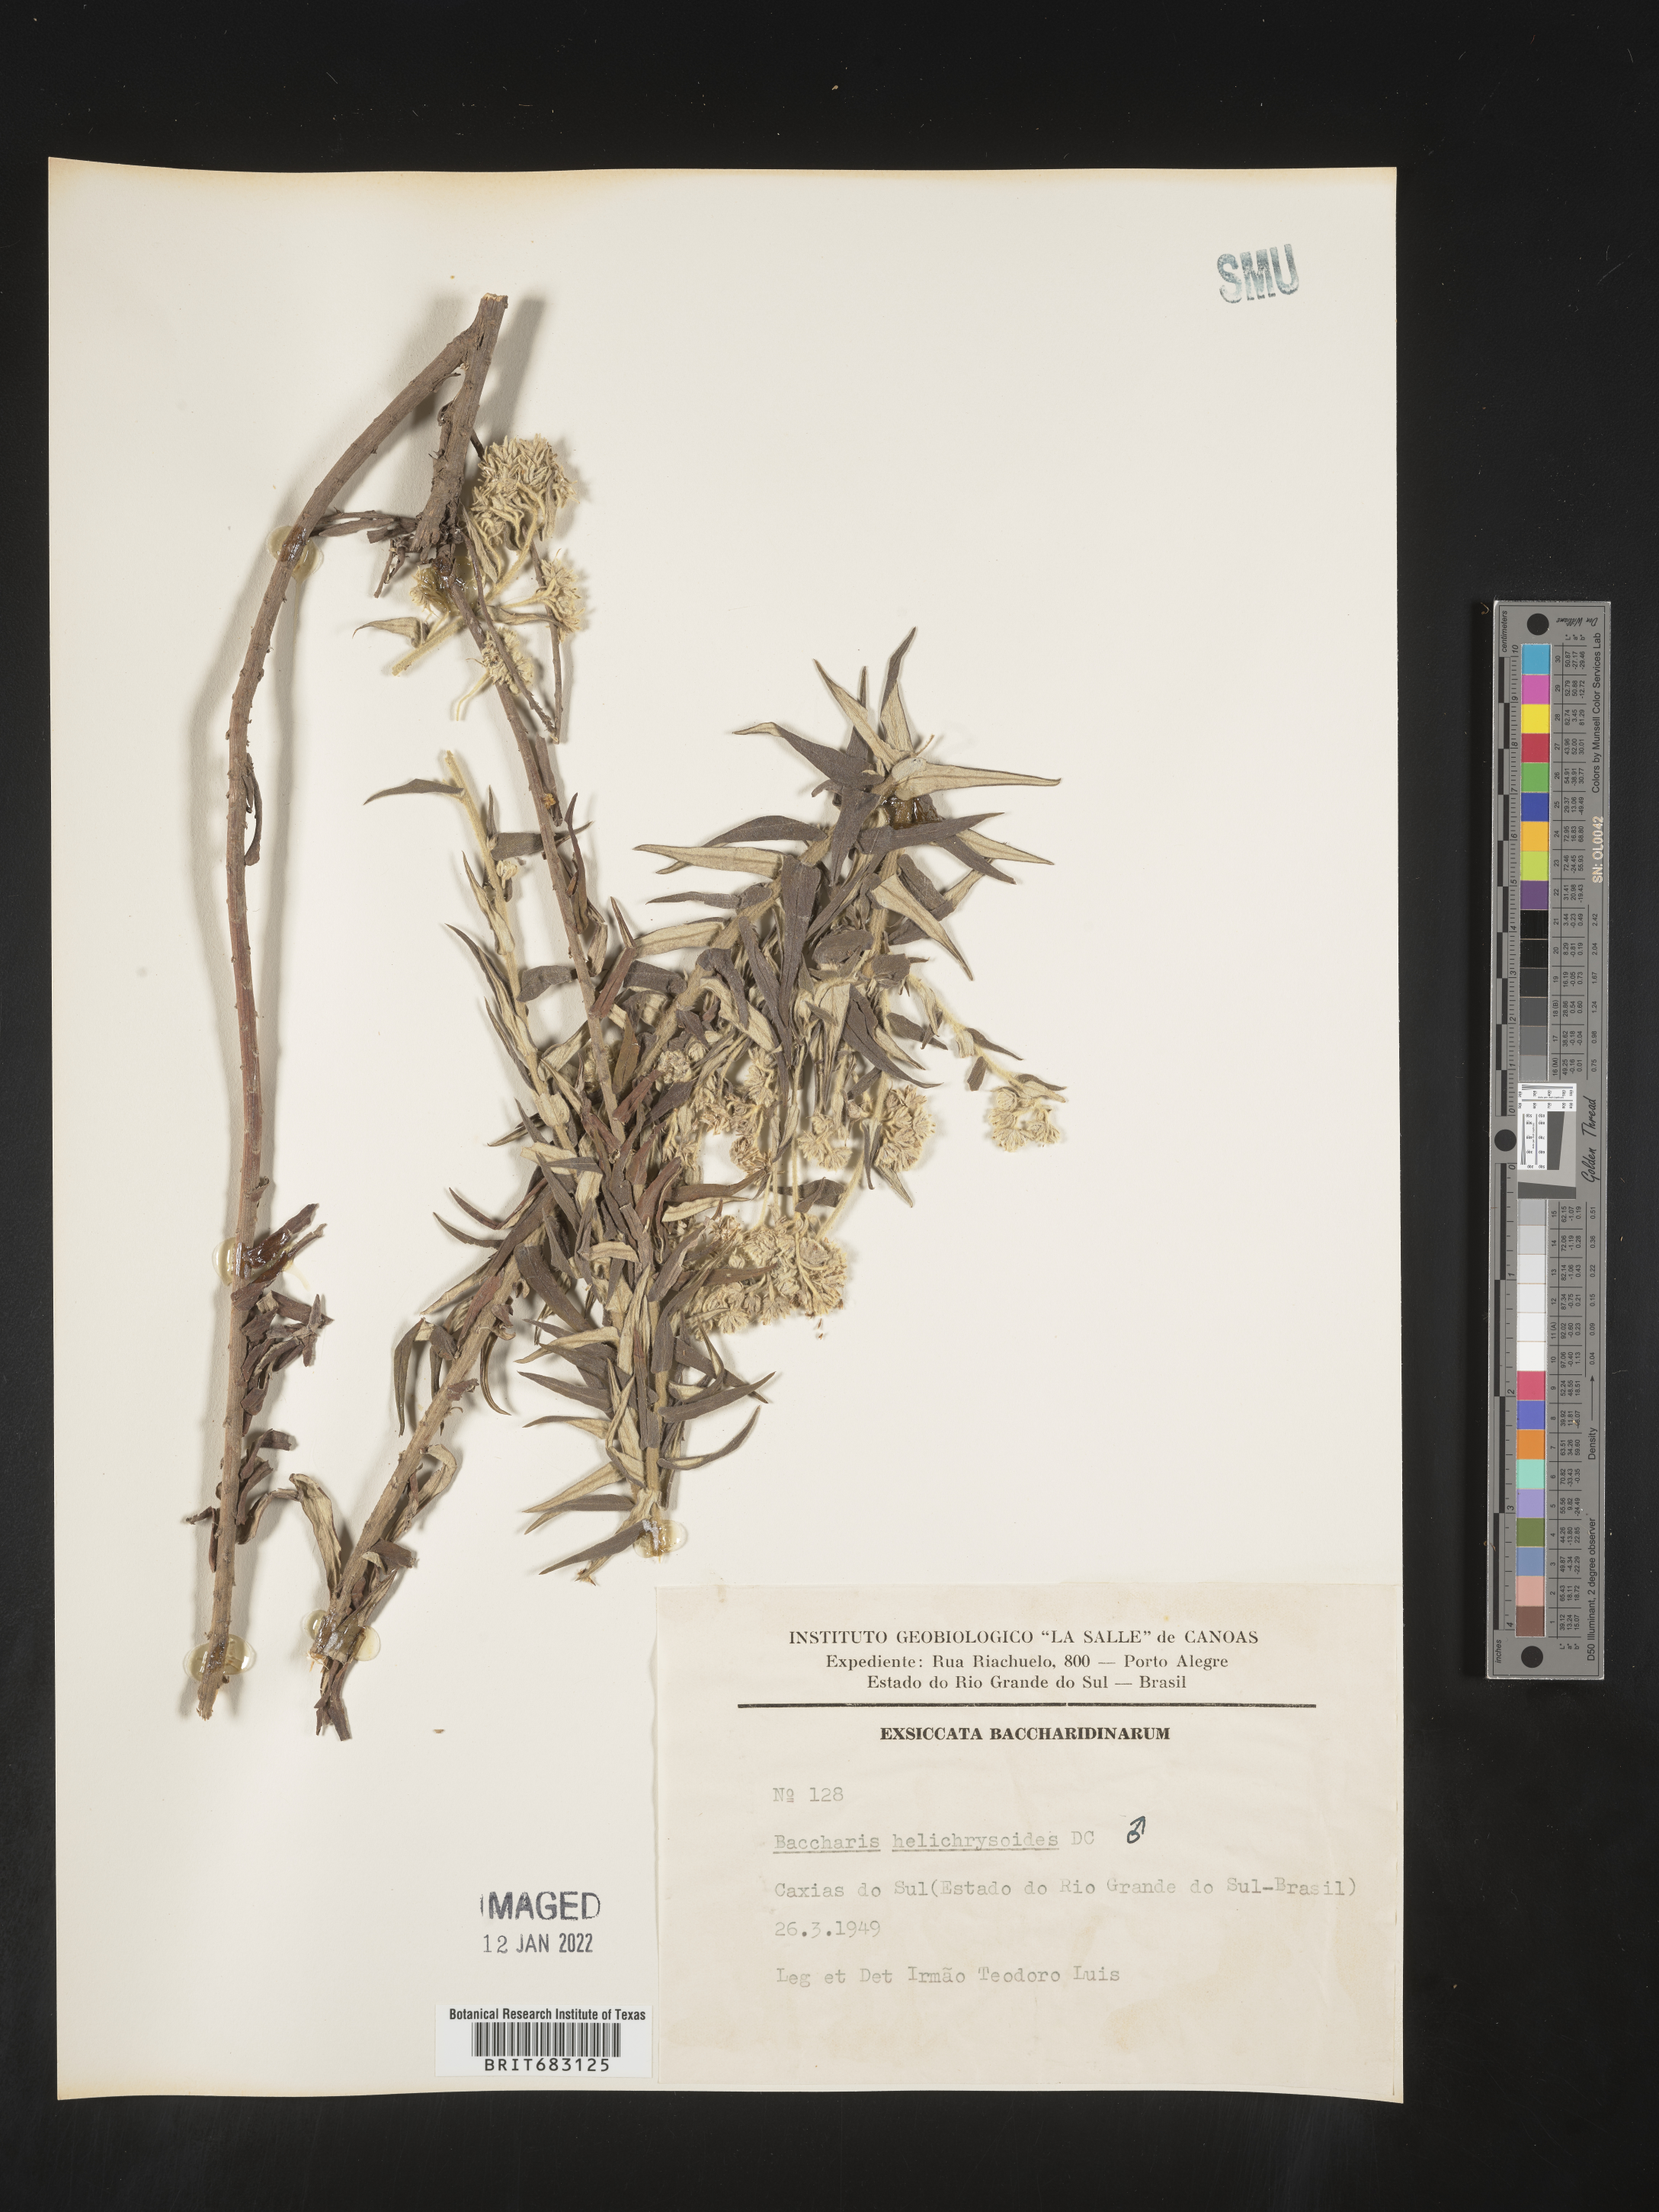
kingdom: Plantae
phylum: Tracheophyta
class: Magnoliopsida
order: Asterales
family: Asteraceae
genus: Baccharis
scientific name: Baccharis
